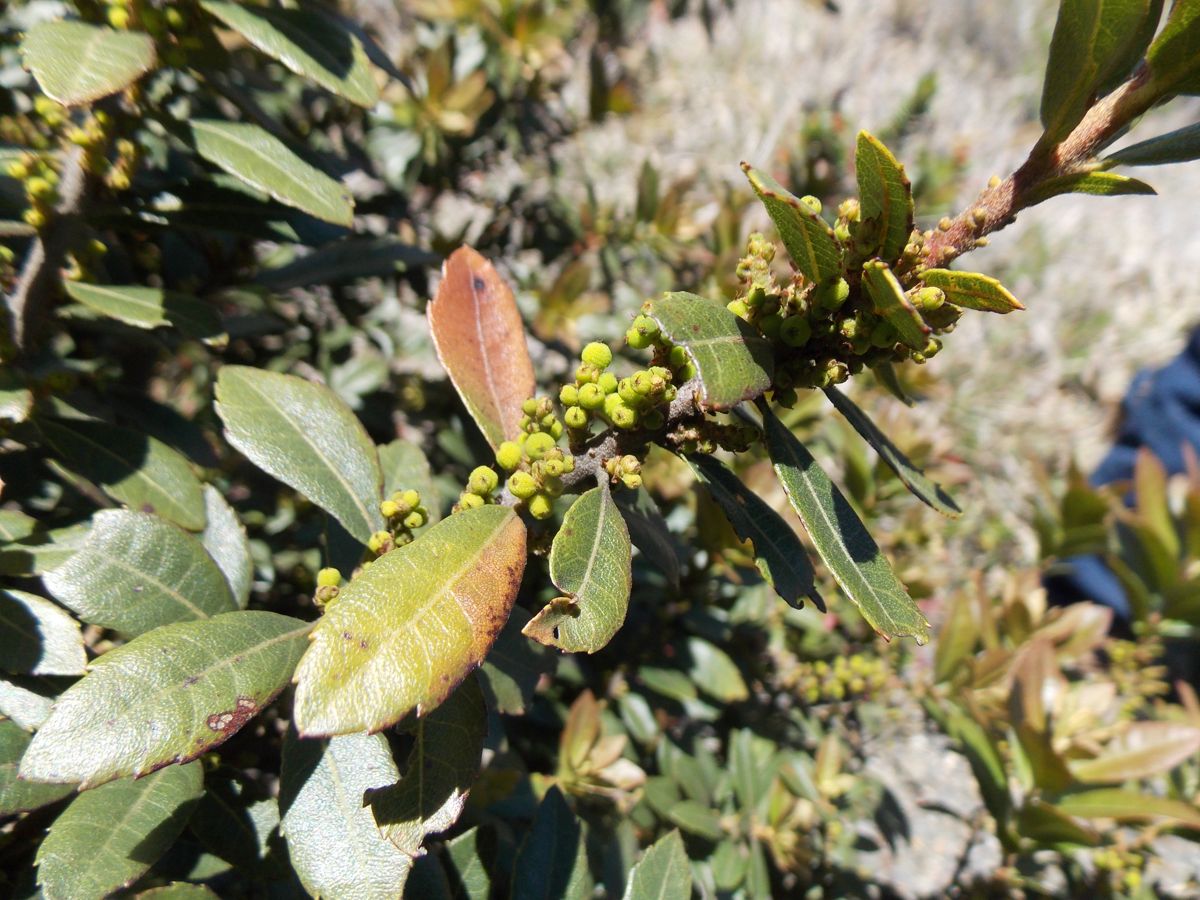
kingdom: Plantae
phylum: Tracheophyta
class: Magnoliopsida
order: Fagales
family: Myricaceae
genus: Morella
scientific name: Morella cerifera
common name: Wax myrtle
